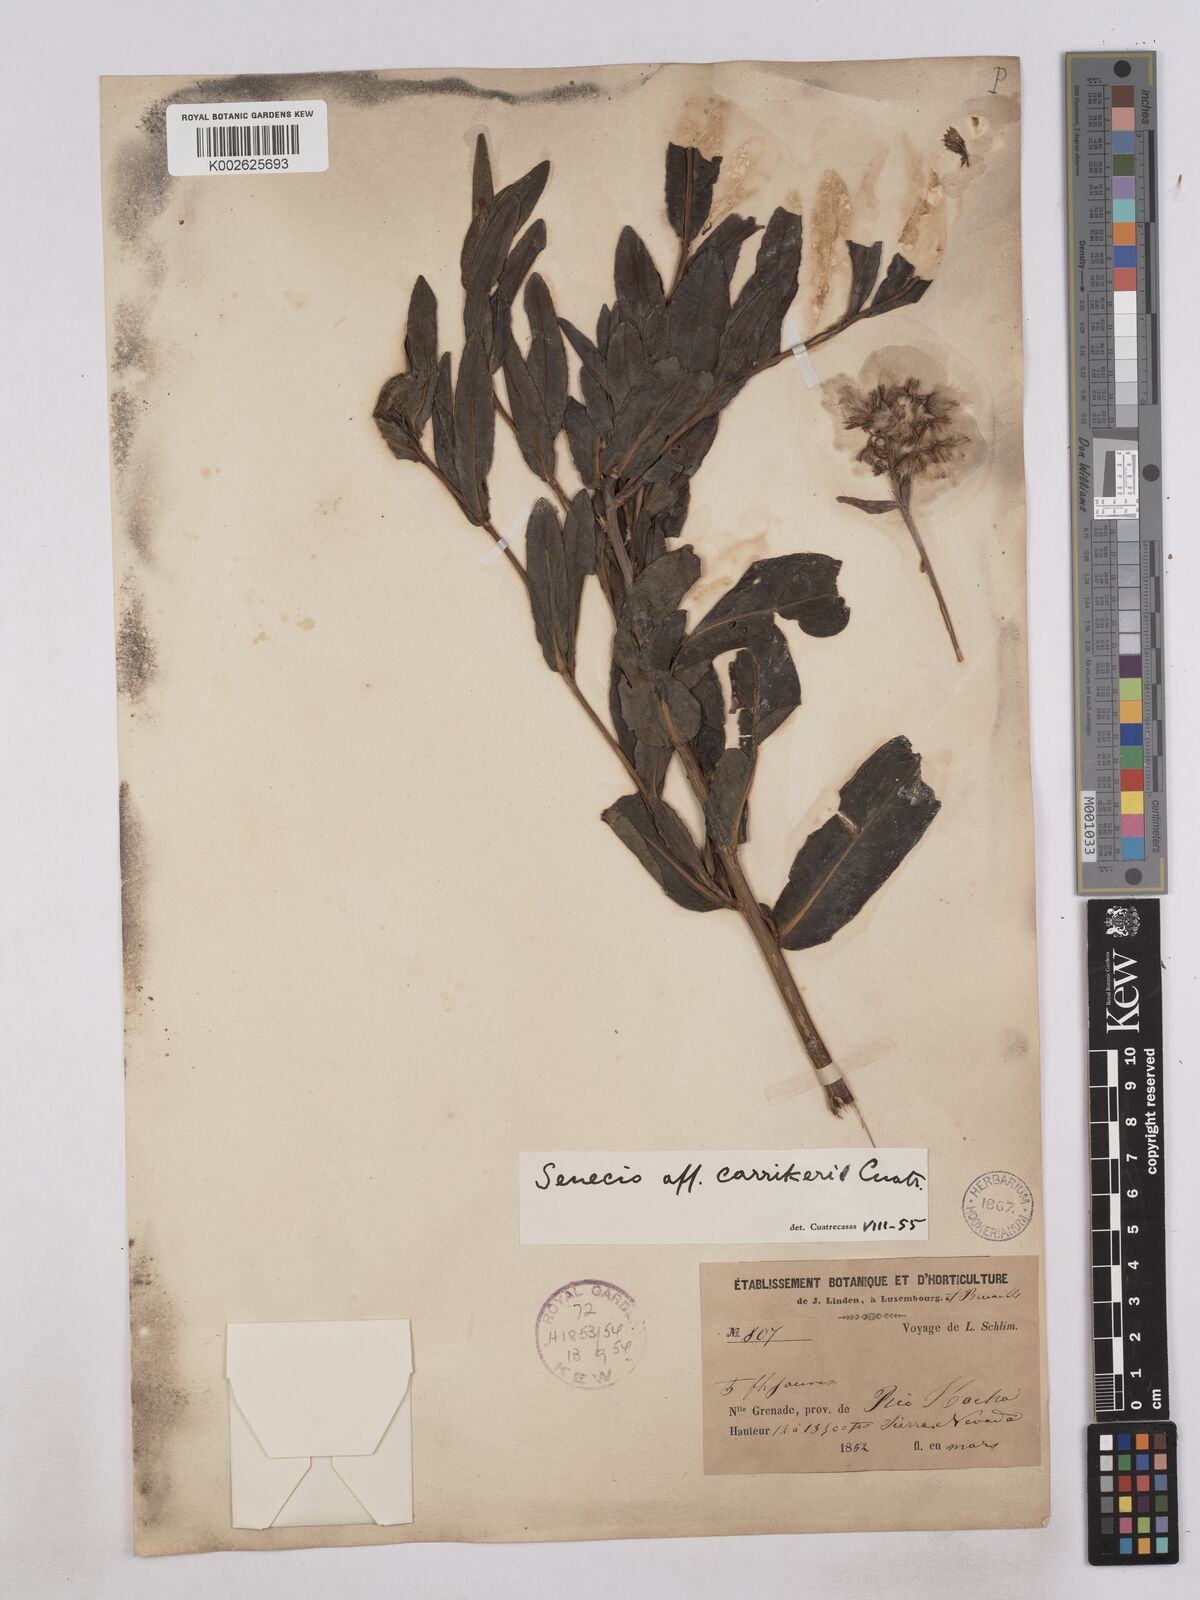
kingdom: Plantae
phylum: Tracheophyta
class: Magnoliopsida
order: Asterales
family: Asteraceae
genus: Monticalia
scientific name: Monticalia carrikeri
